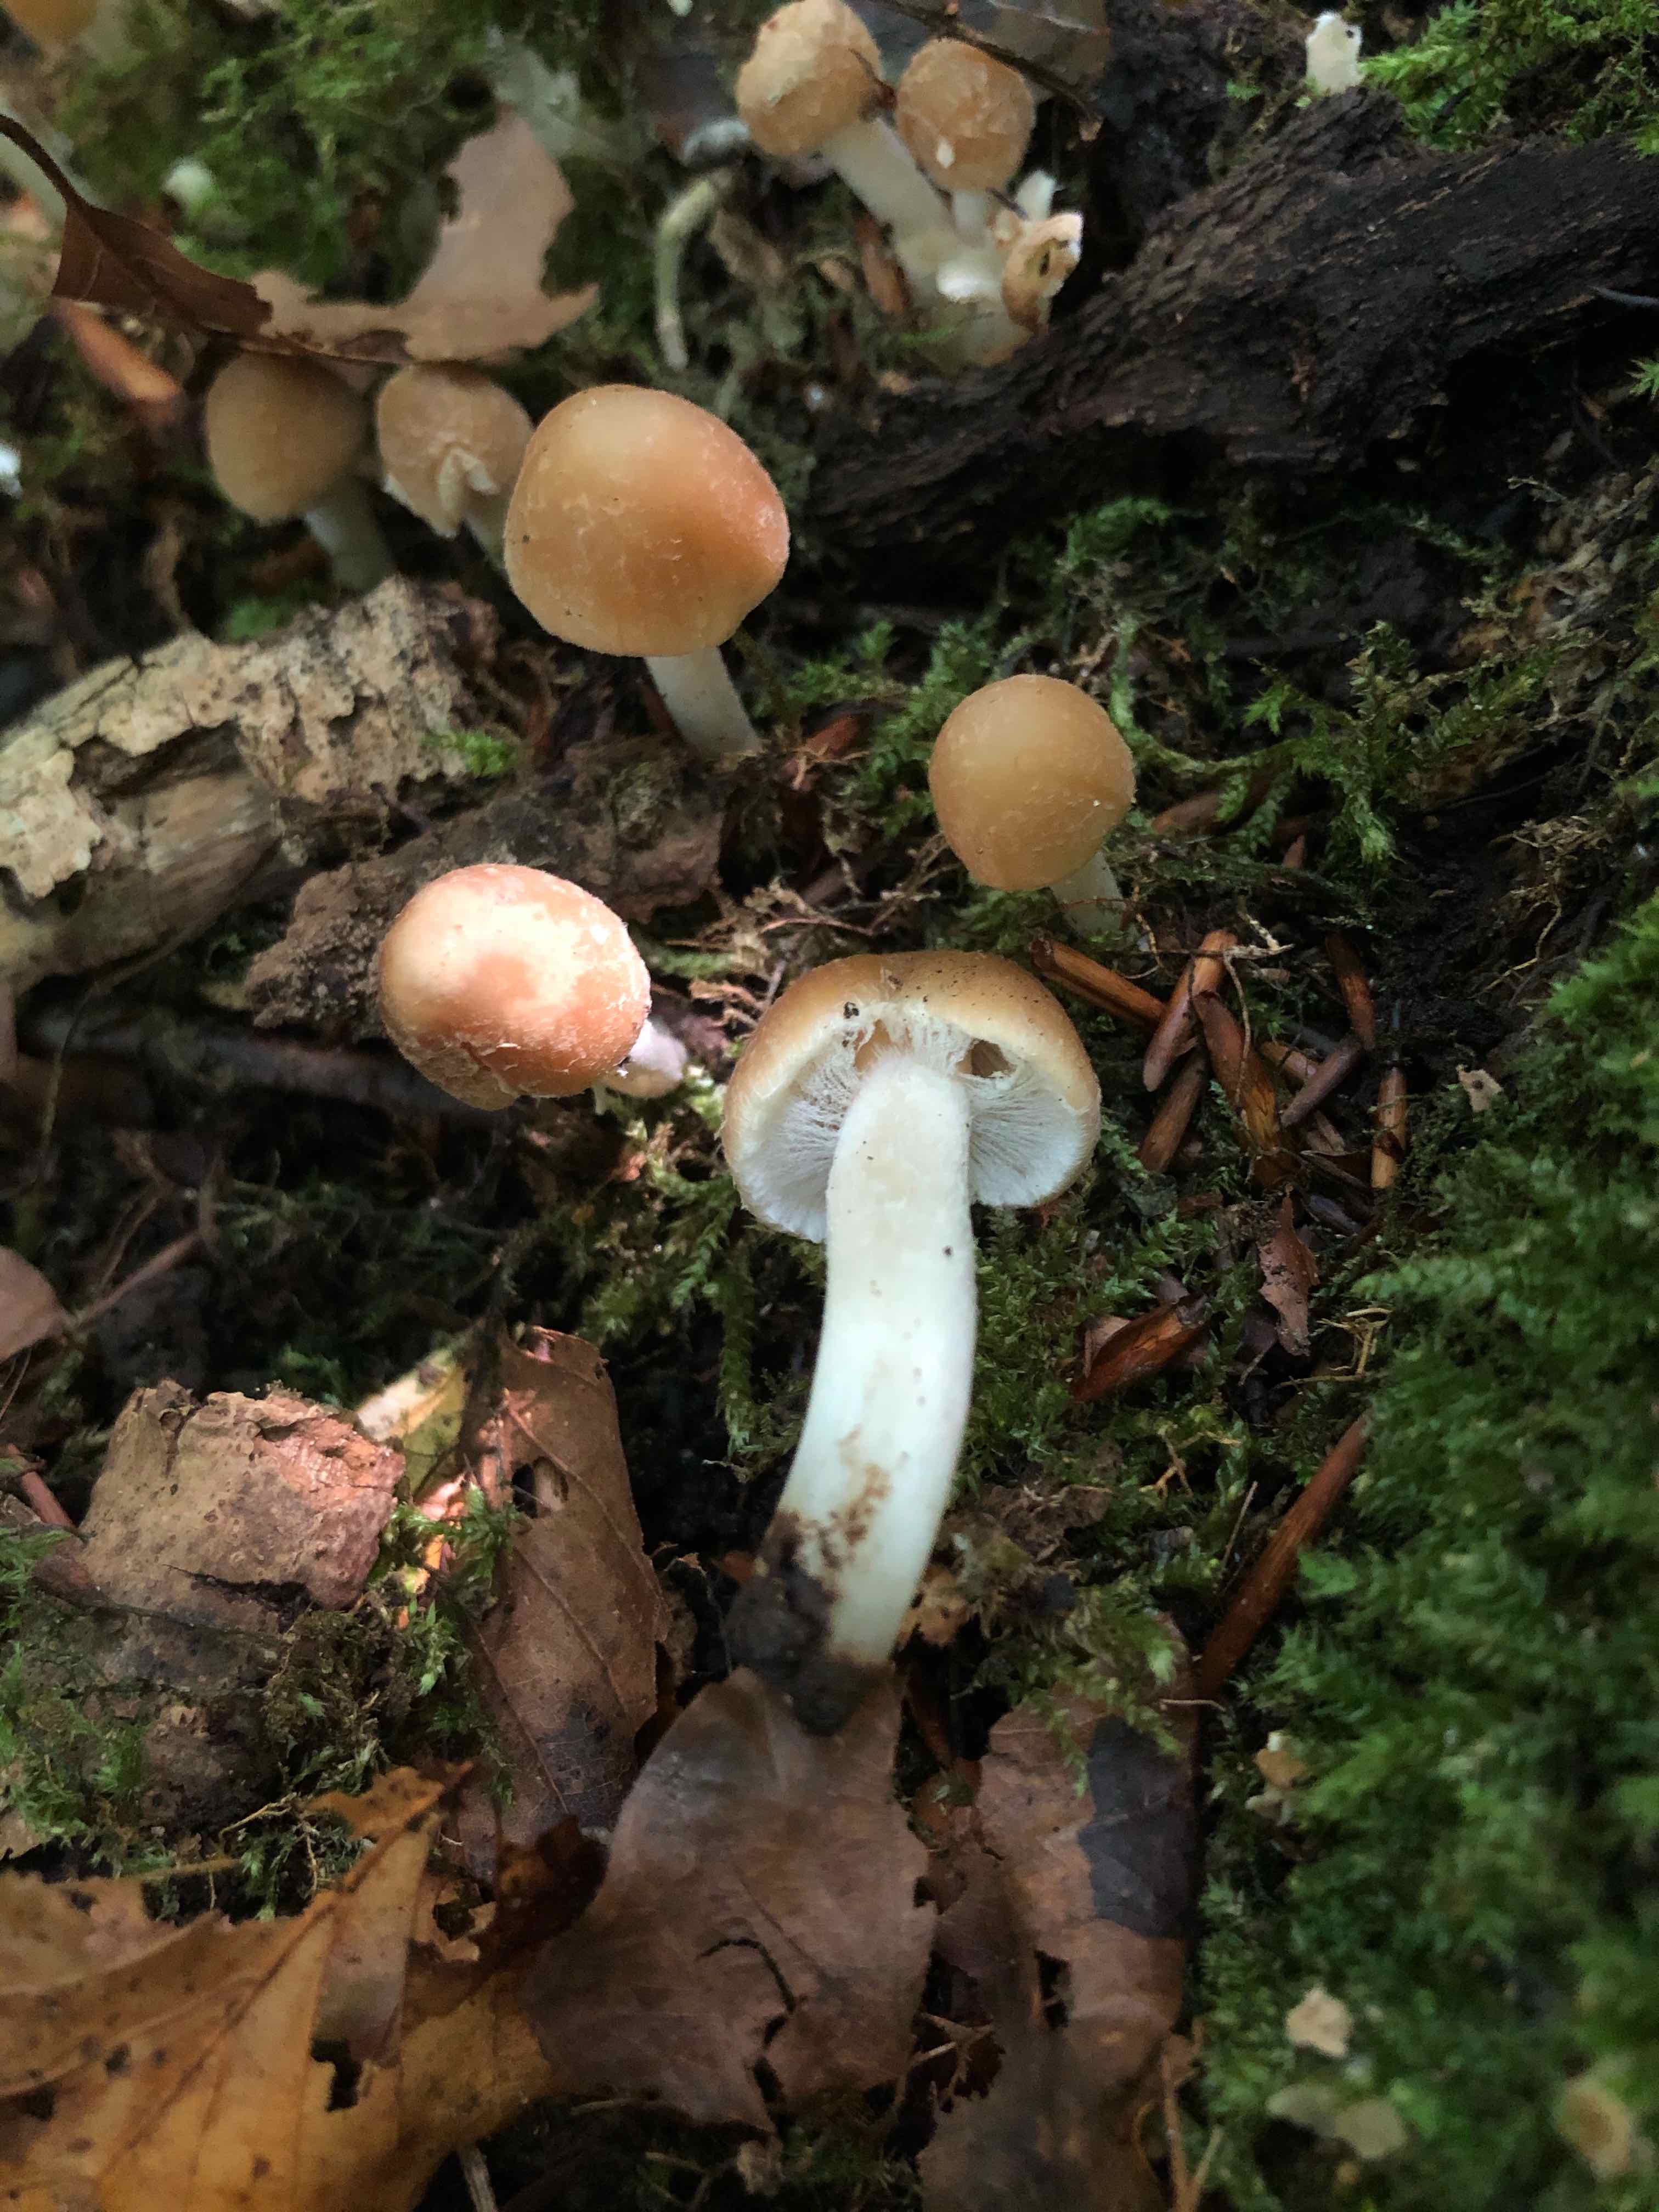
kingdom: Fungi
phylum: Basidiomycota
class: Agaricomycetes
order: Agaricales
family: Psathyrellaceae
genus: Candolleomyces
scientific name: Candolleomyces candolleanus
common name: Candolles mørkhat
